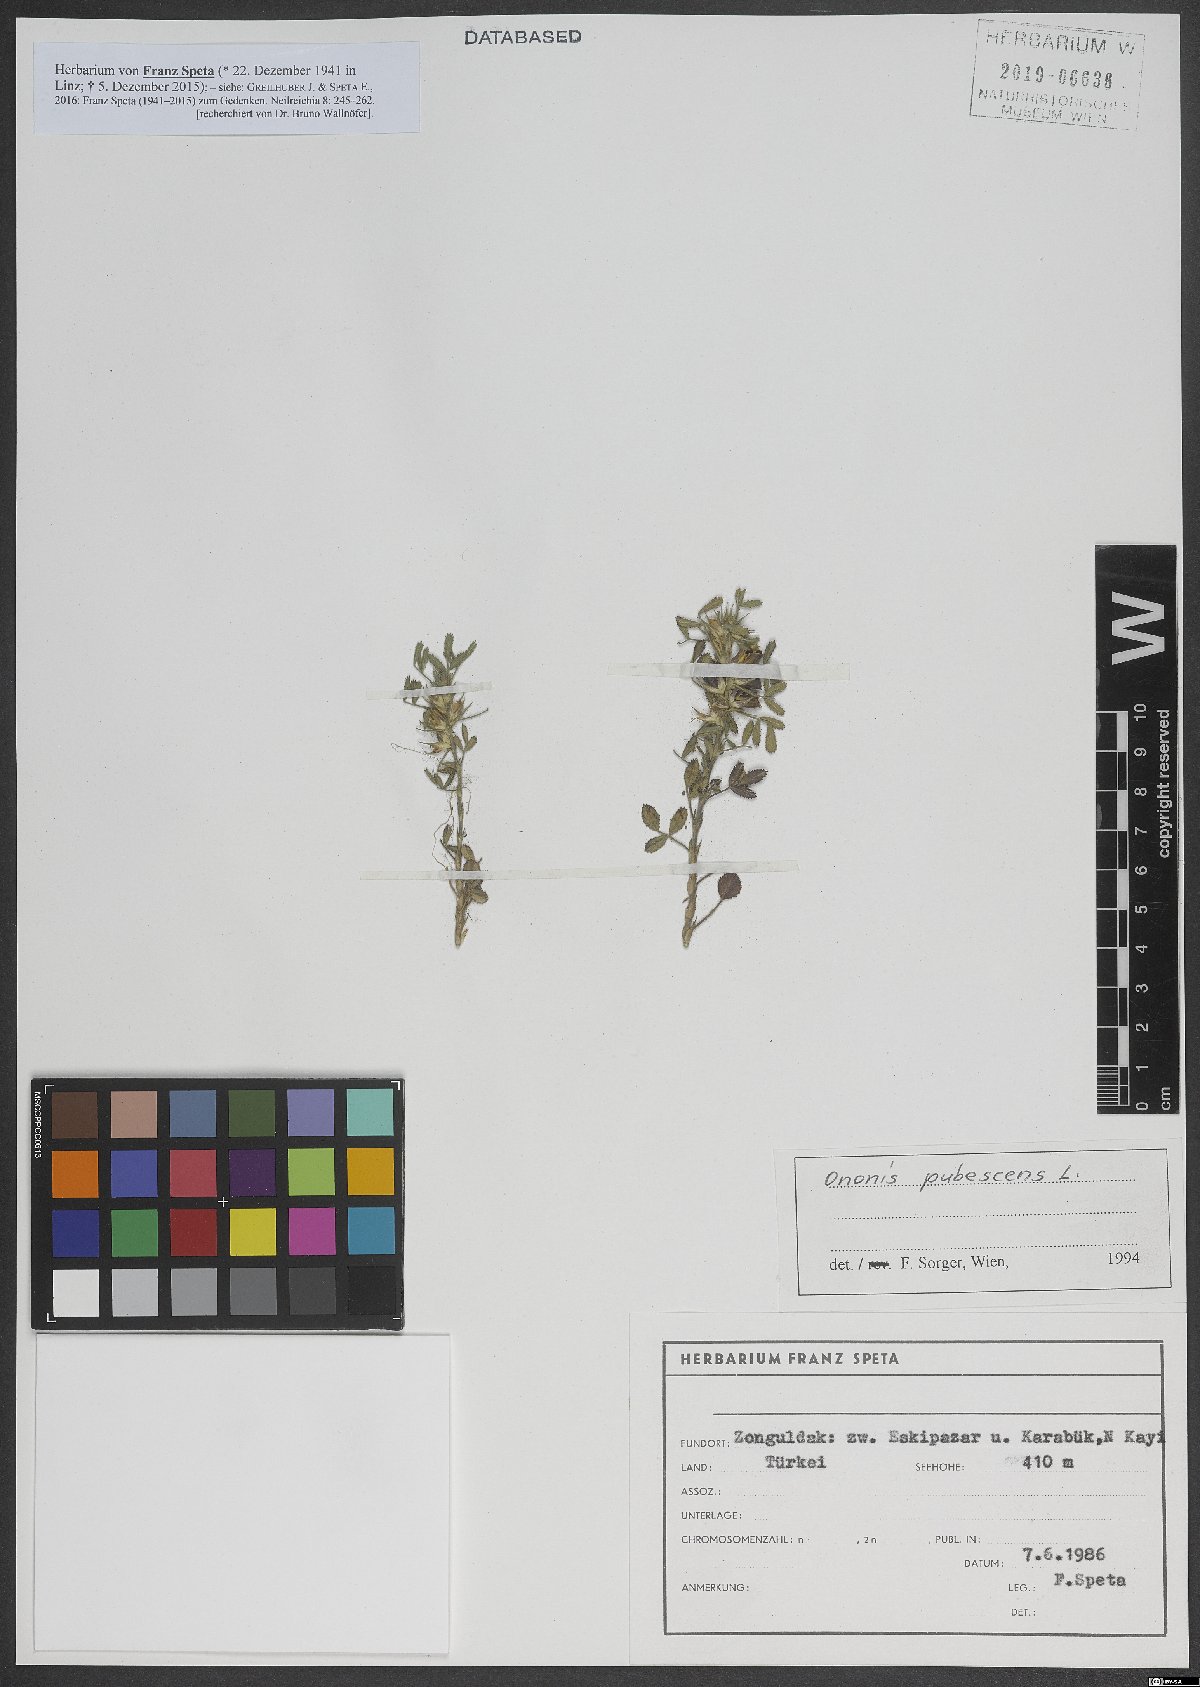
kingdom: Plantae
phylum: Tracheophyta
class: Magnoliopsida
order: Fabales
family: Fabaceae
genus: Ononis
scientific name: Ononis pubescens
